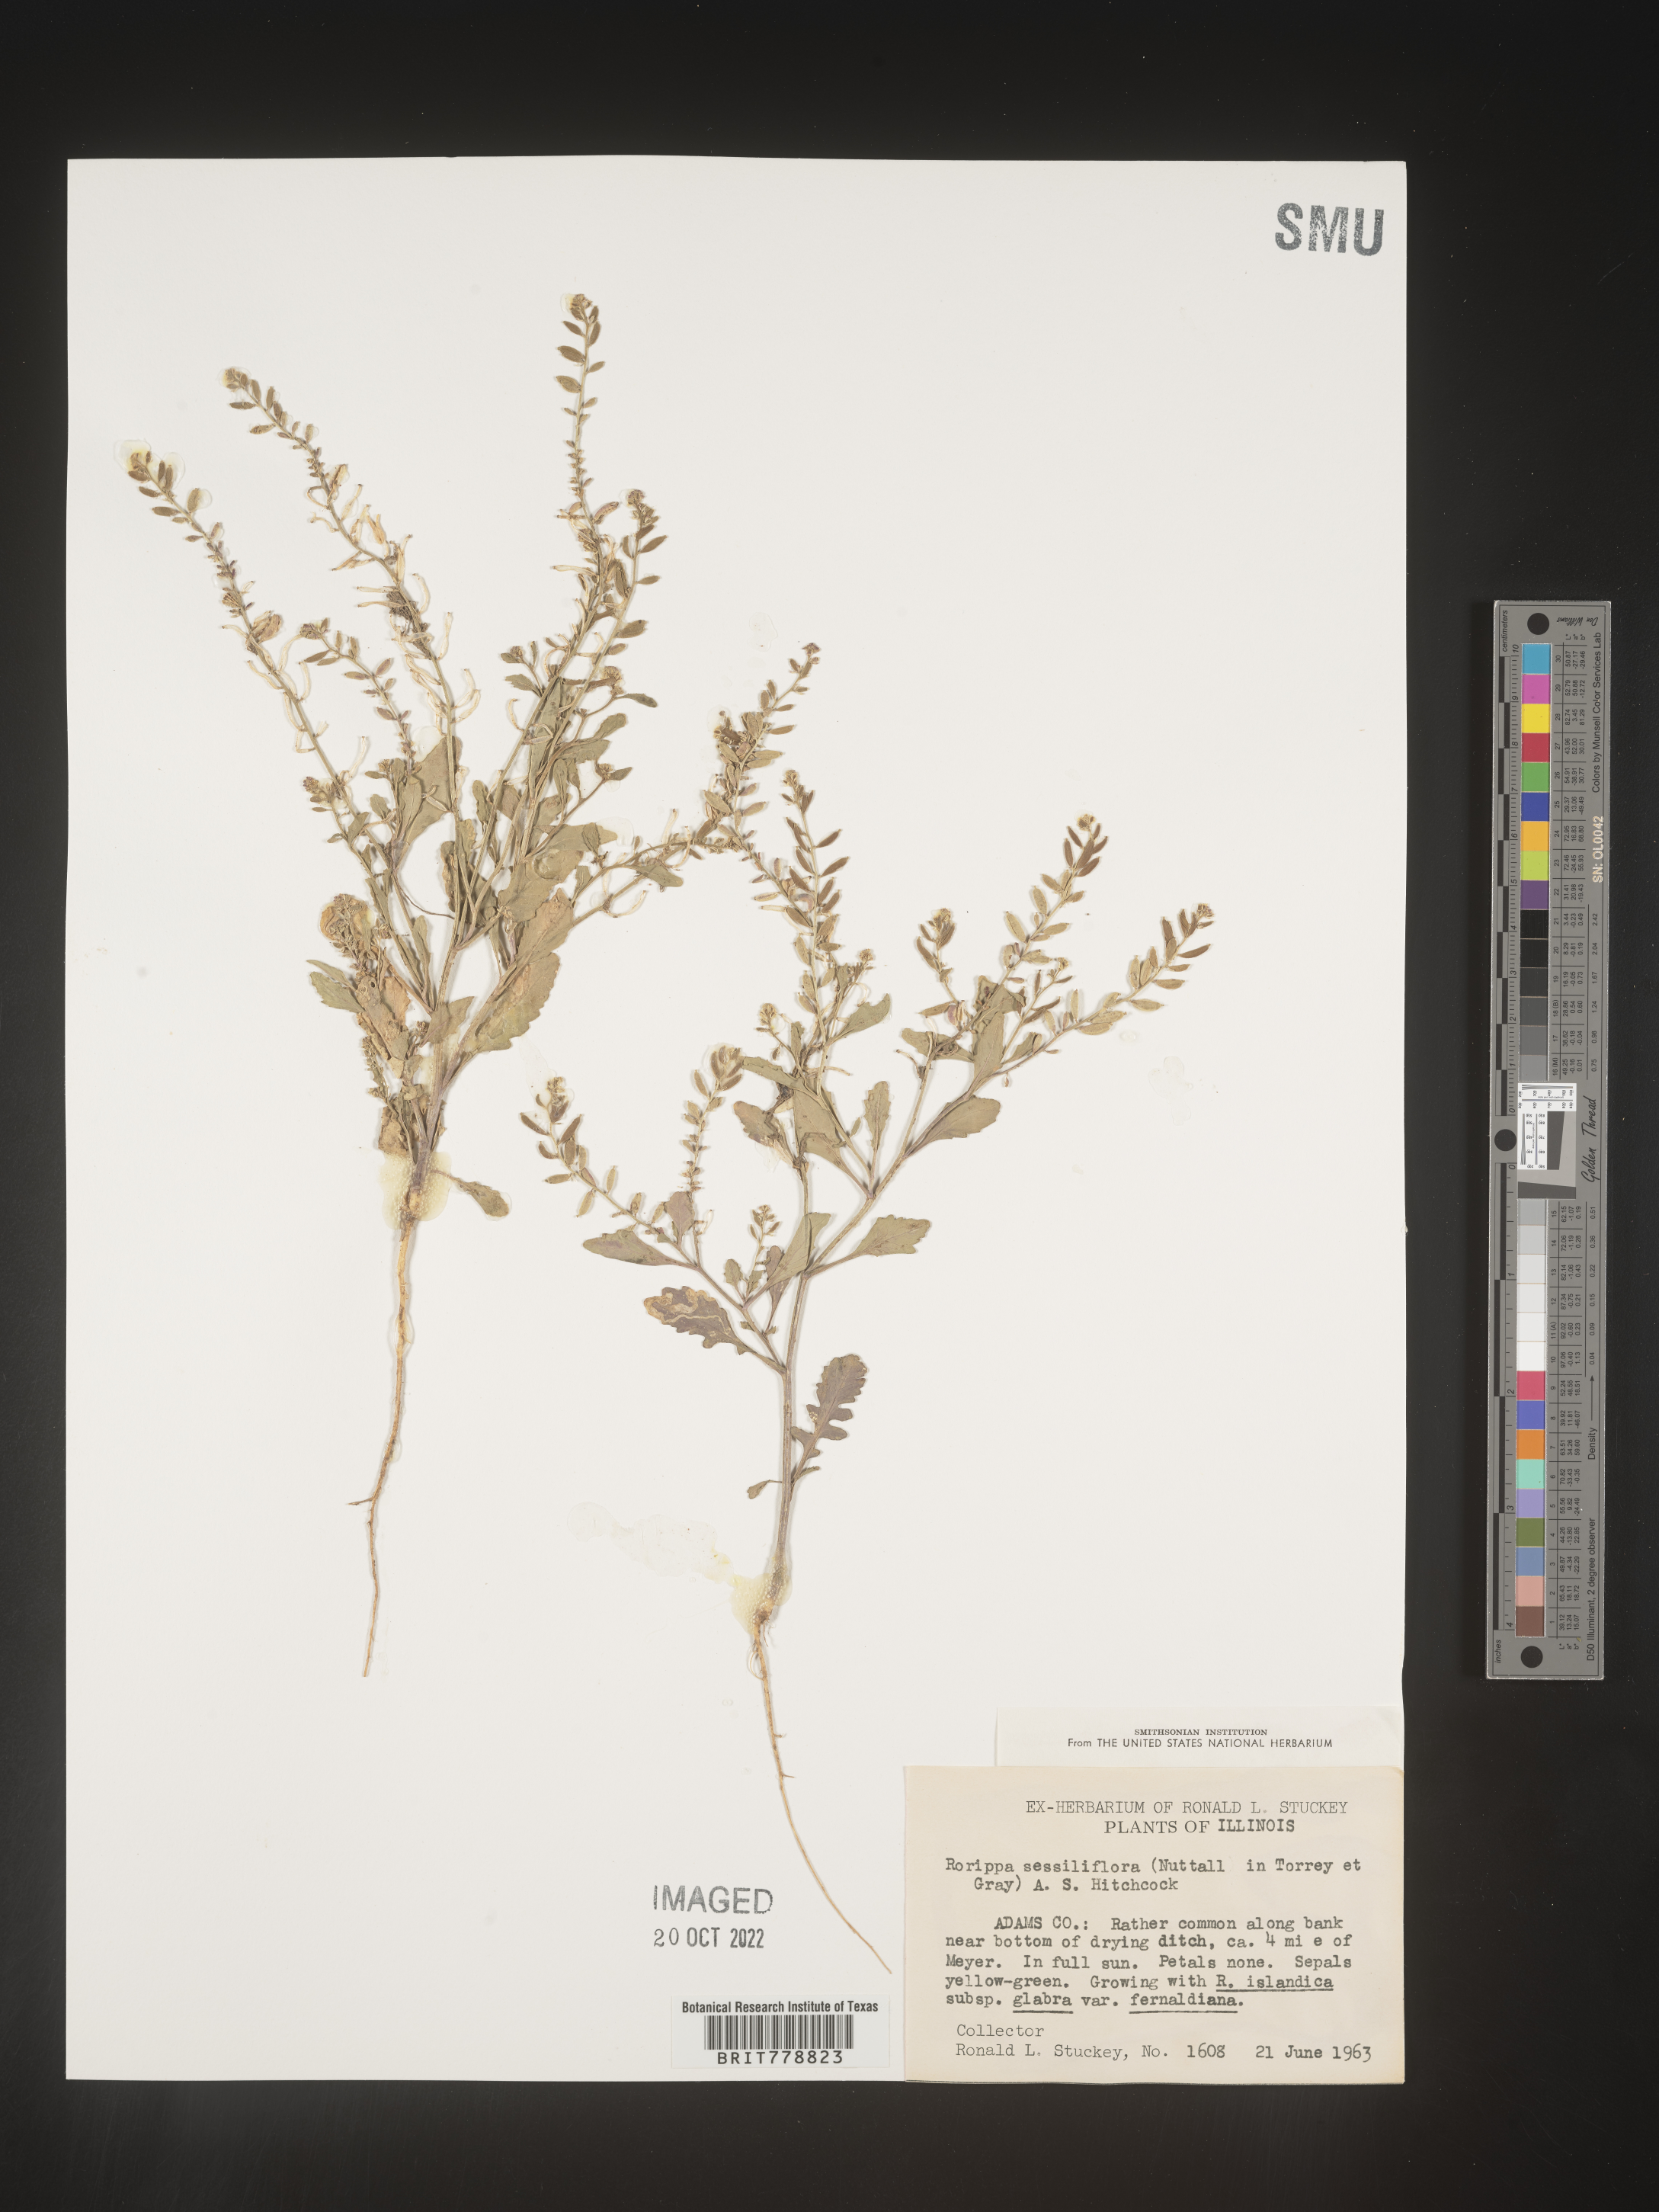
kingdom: Plantae
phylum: Tracheophyta
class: Magnoliopsida
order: Brassicales
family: Brassicaceae
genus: Rorippa
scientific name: Rorippa sessiliflora
